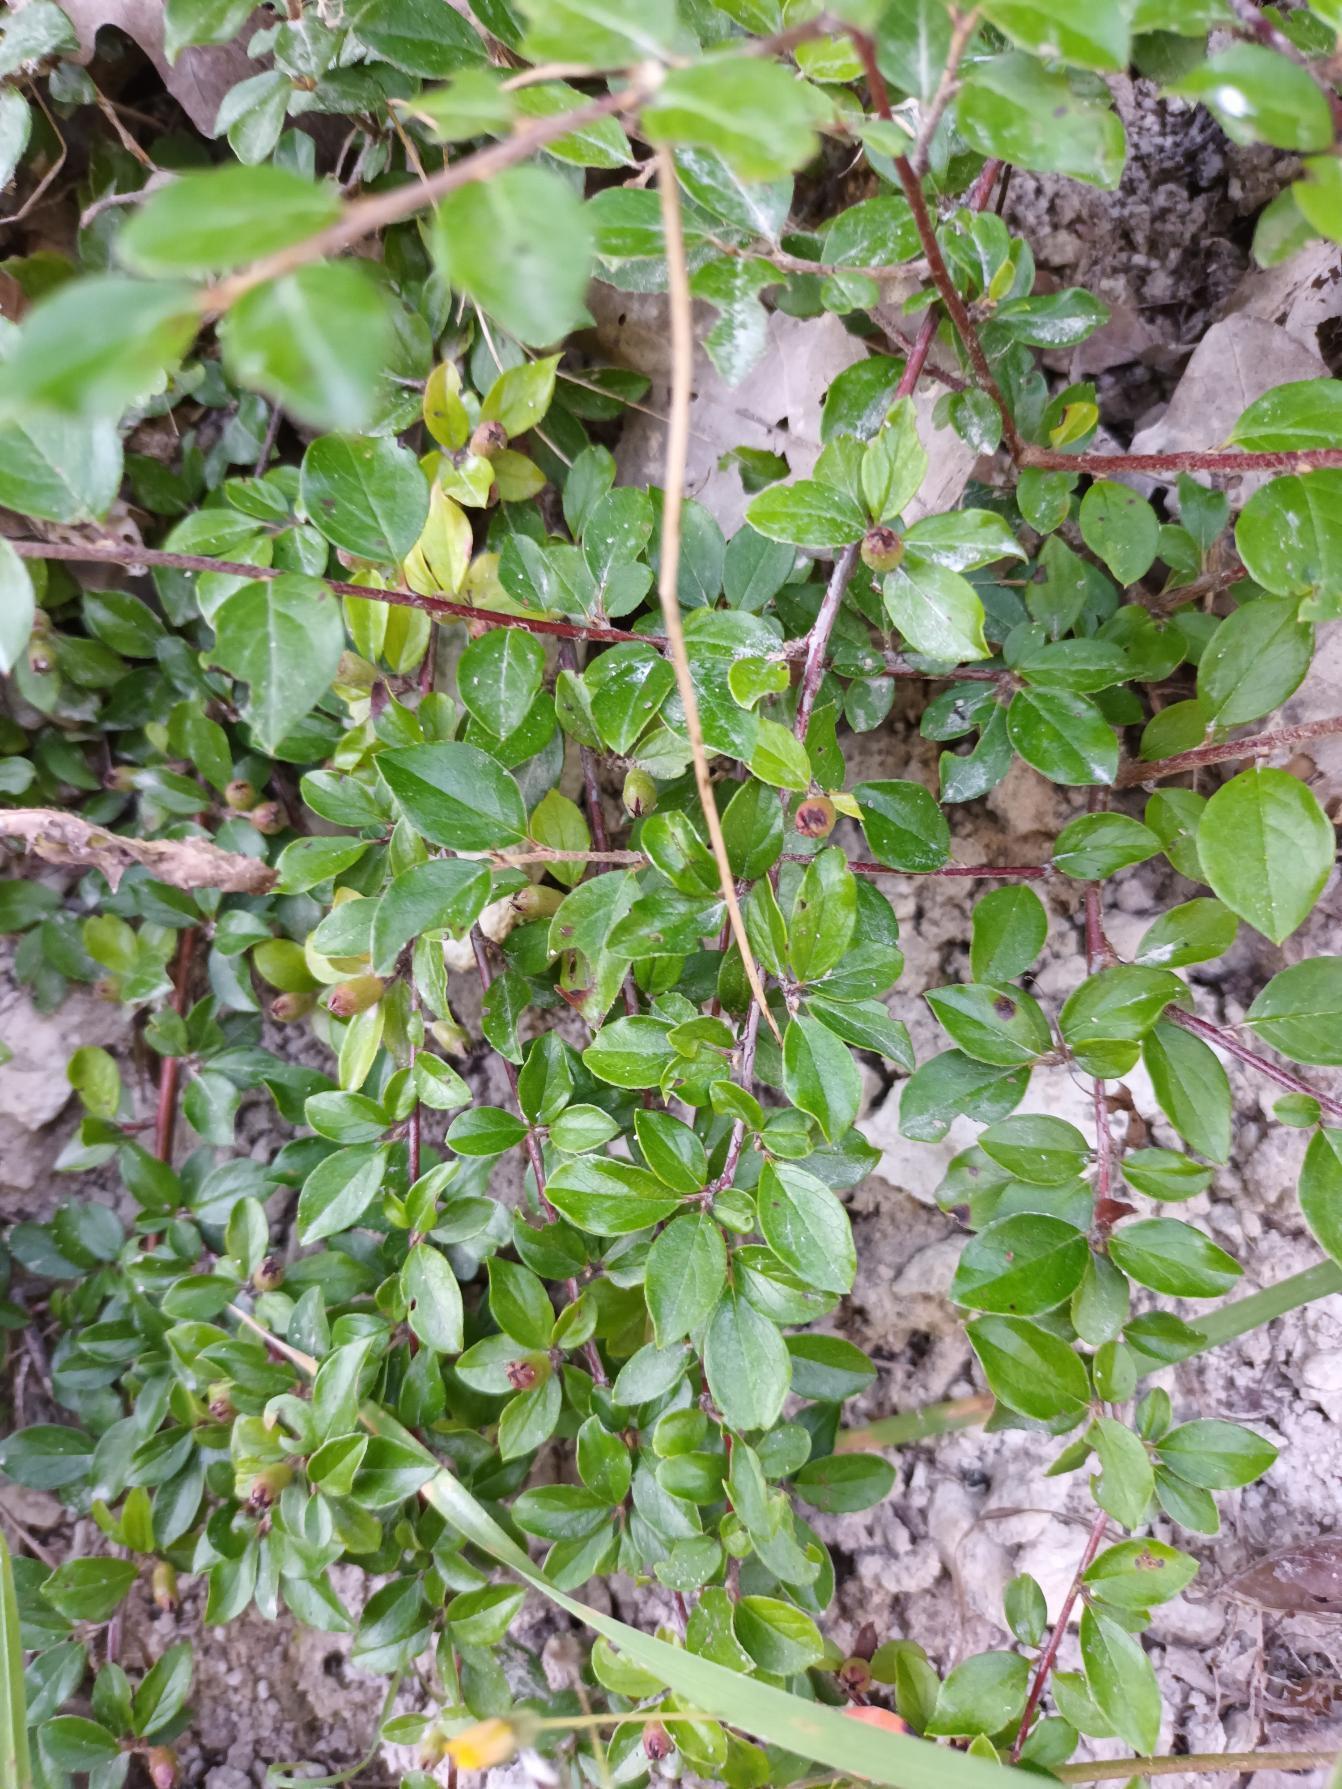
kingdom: Plantae
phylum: Tracheophyta
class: Magnoliopsida
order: Rosales
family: Rosaceae
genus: Cotoneaster
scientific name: Cotoneaster ascendens
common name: Espalier-dværgmispel
